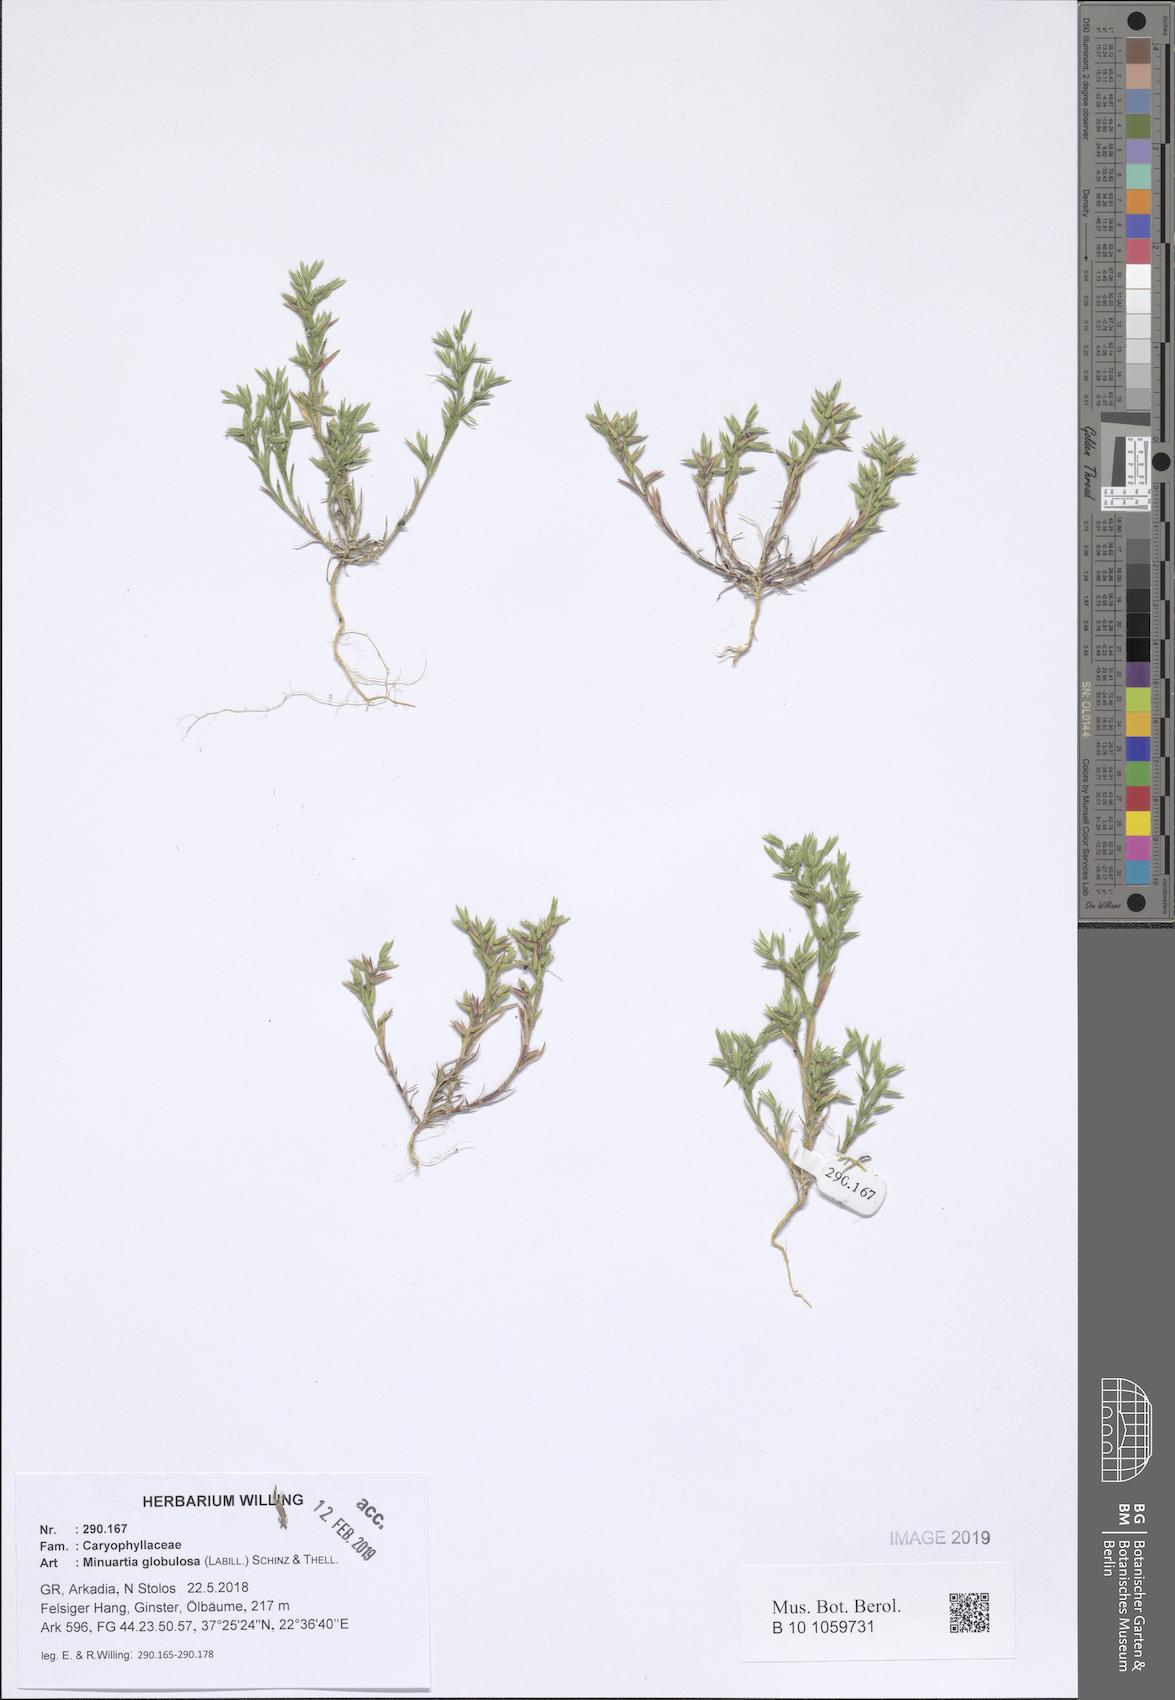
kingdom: Plantae
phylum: Tracheophyta
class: Magnoliopsida
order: Caryophyllales
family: Caryophyllaceae
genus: Minuartia
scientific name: Minuartia globulosa
